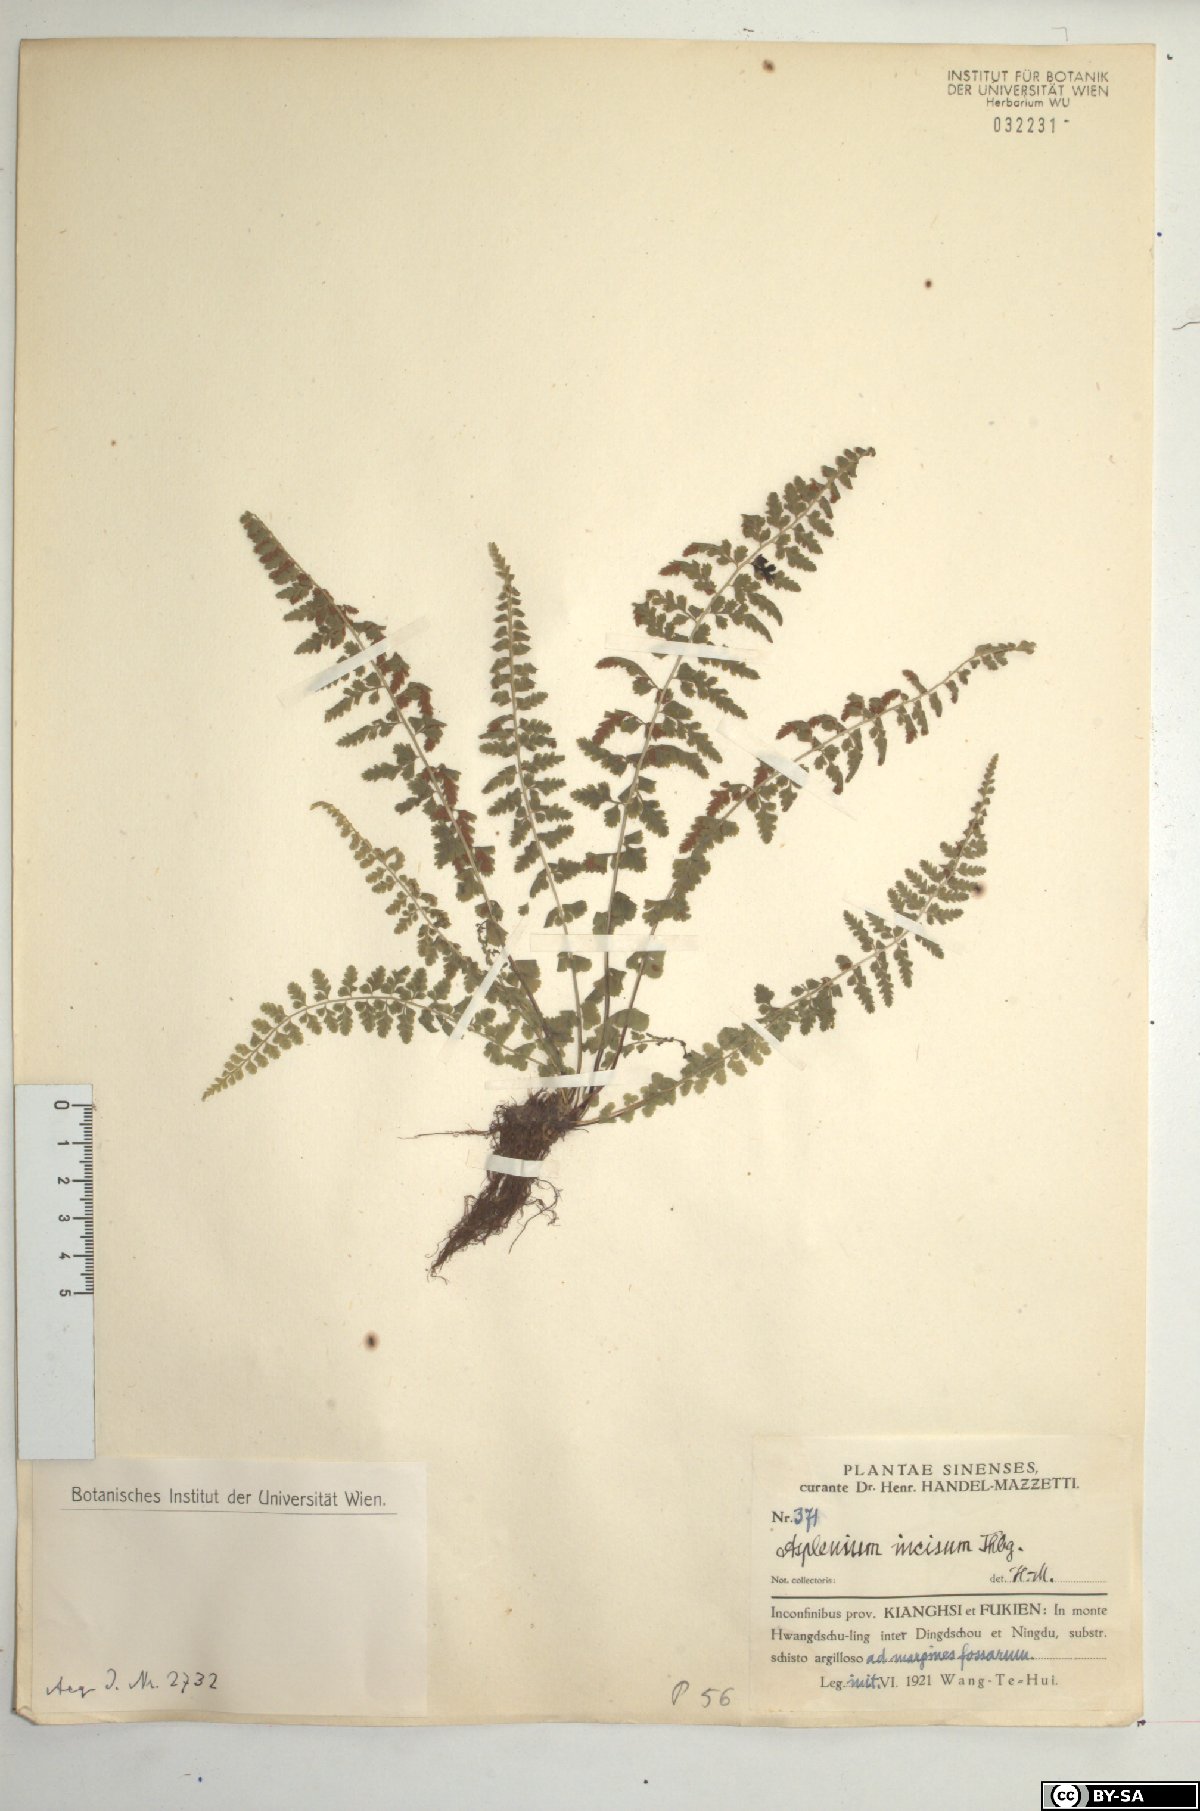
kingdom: Plantae
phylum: Tracheophyta
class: Polypodiopsida
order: Polypodiales
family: Aspleniaceae
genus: Asplenium
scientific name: Asplenium incisum
